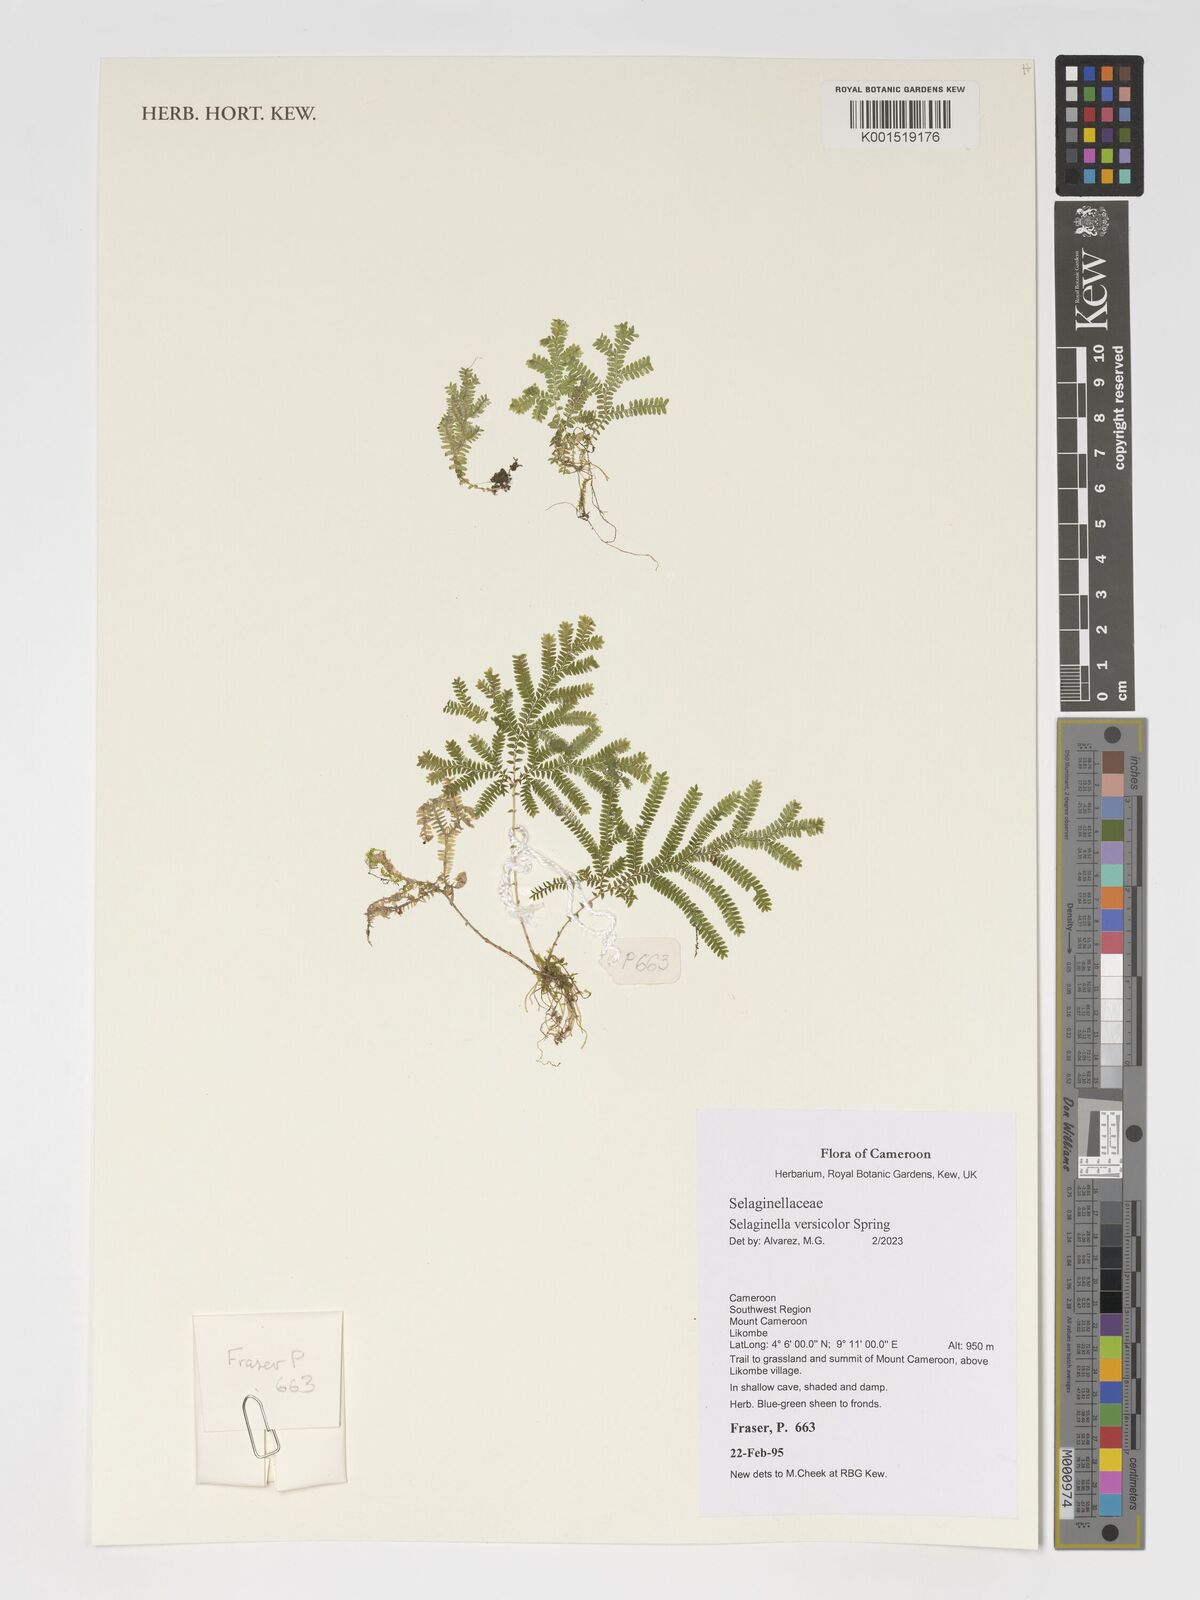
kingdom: Plantae
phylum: Tracheophyta
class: Lycopodiopsida
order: Selaginellales
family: Selaginellaceae
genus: Selaginella
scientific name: Selaginella versicolor
